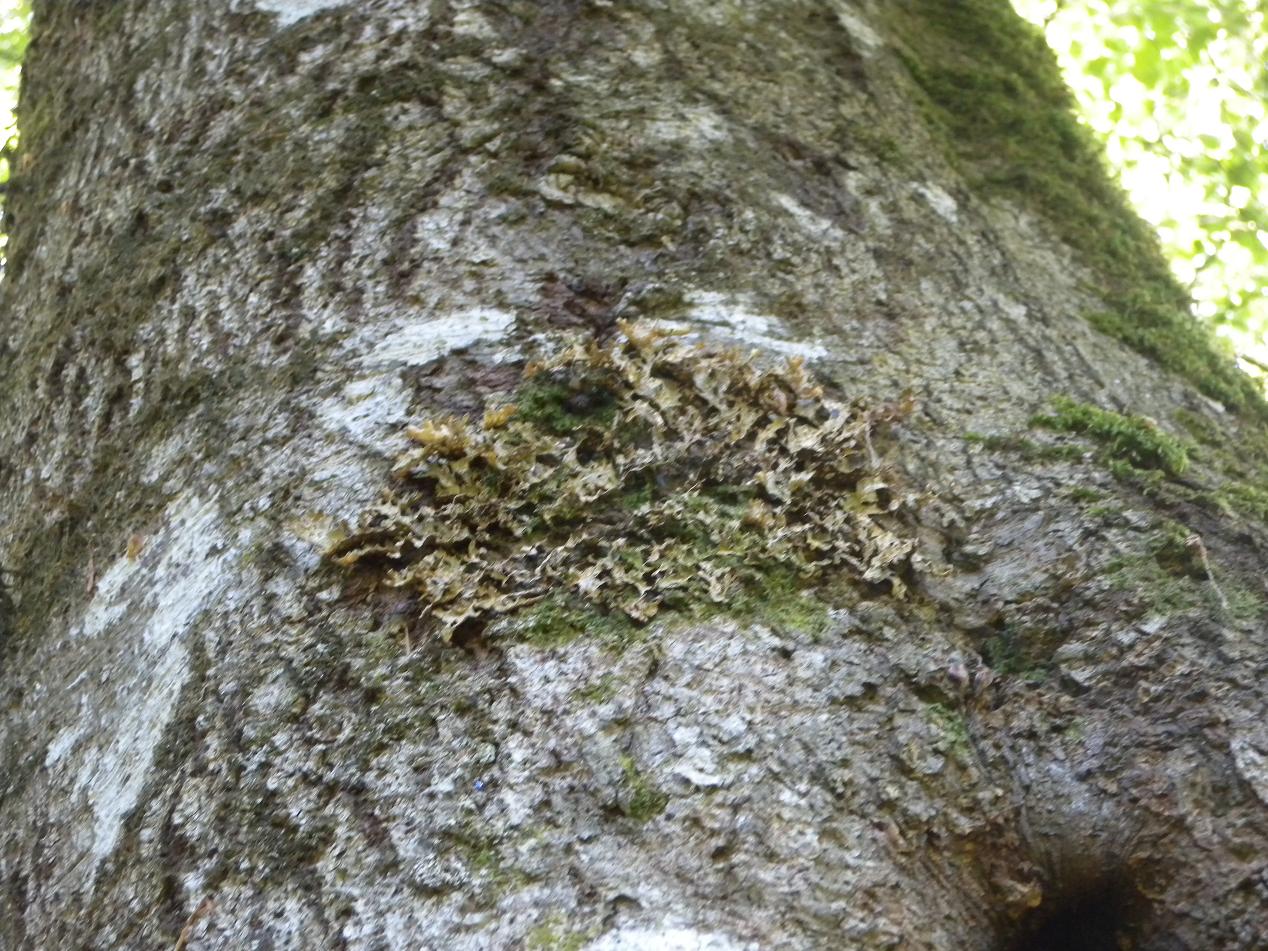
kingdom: Fungi
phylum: Ascomycota
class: Lecanoromycetes
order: Peltigerales
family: Lobariaceae
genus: Lobaria
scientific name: Lobaria pulmonaria
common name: almindelig lungelav
